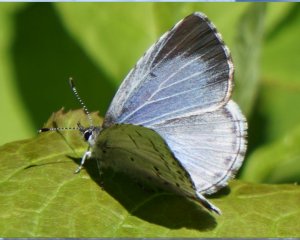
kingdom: Animalia
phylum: Arthropoda
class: Insecta
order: Lepidoptera
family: Lycaenidae
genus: Celastrina
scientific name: Celastrina serotina
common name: Cherry Gall Azure
